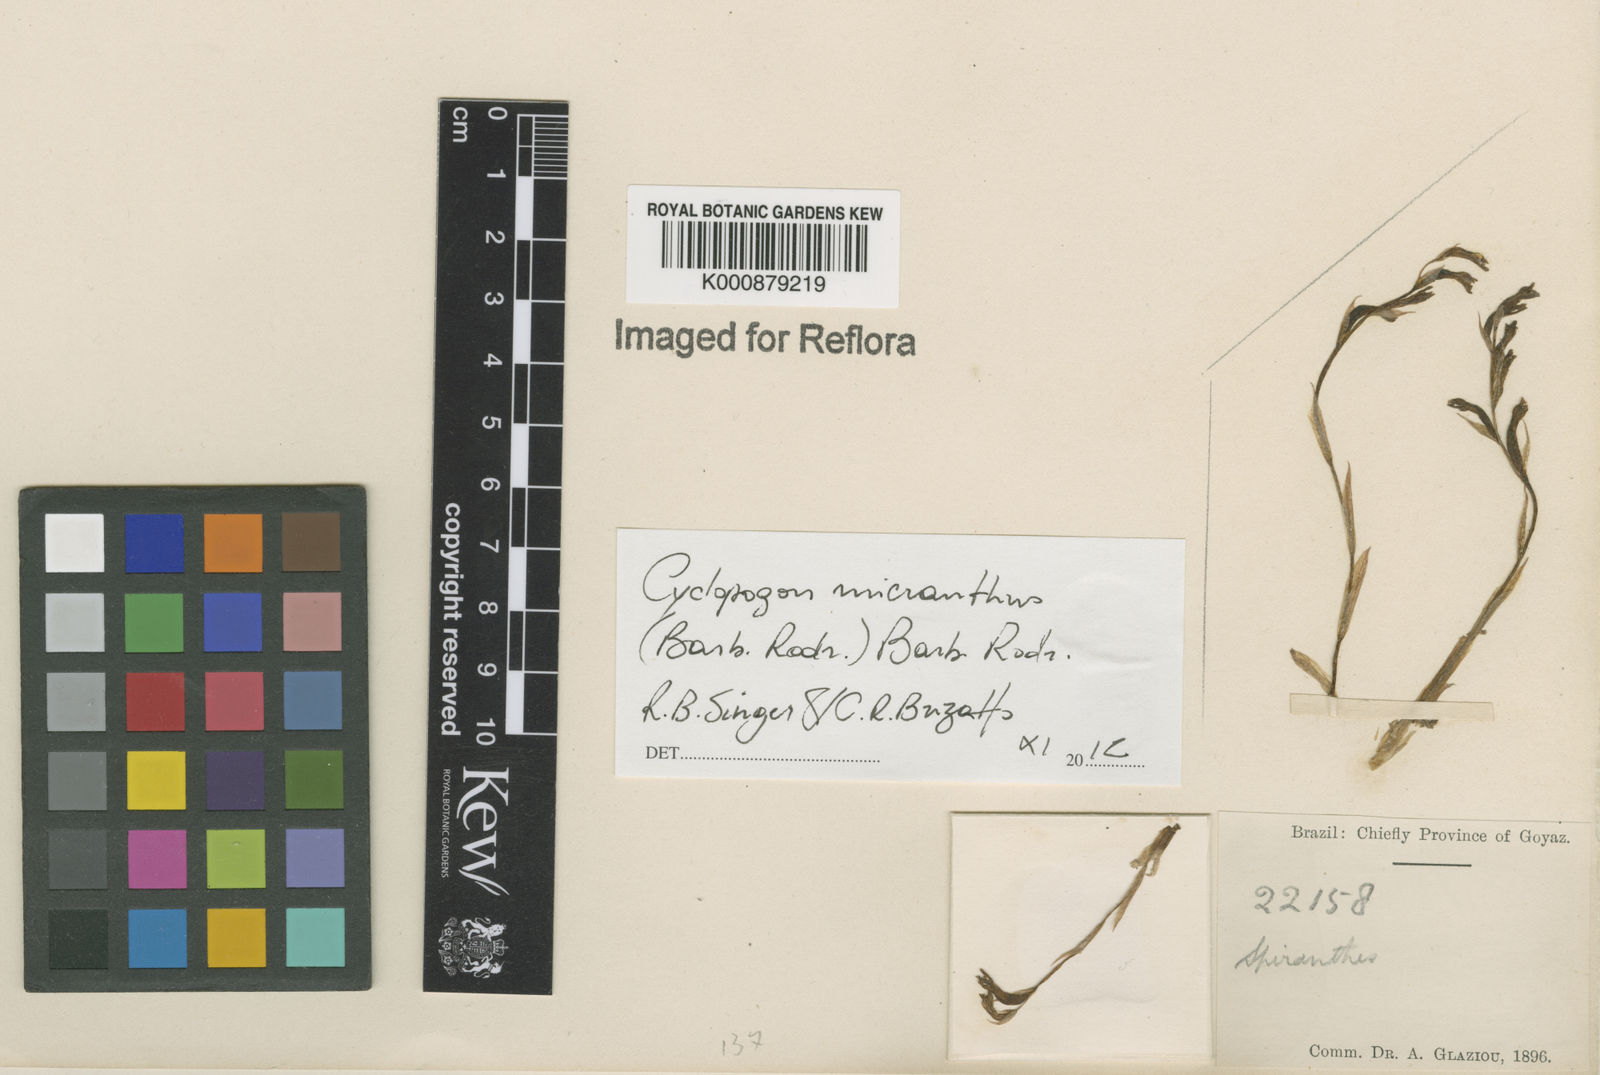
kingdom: Plantae
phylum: Tracheophyta
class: Liliopsida
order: Asparagales
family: Orchidaceae
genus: Cyclopogon
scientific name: Cyclopogon
